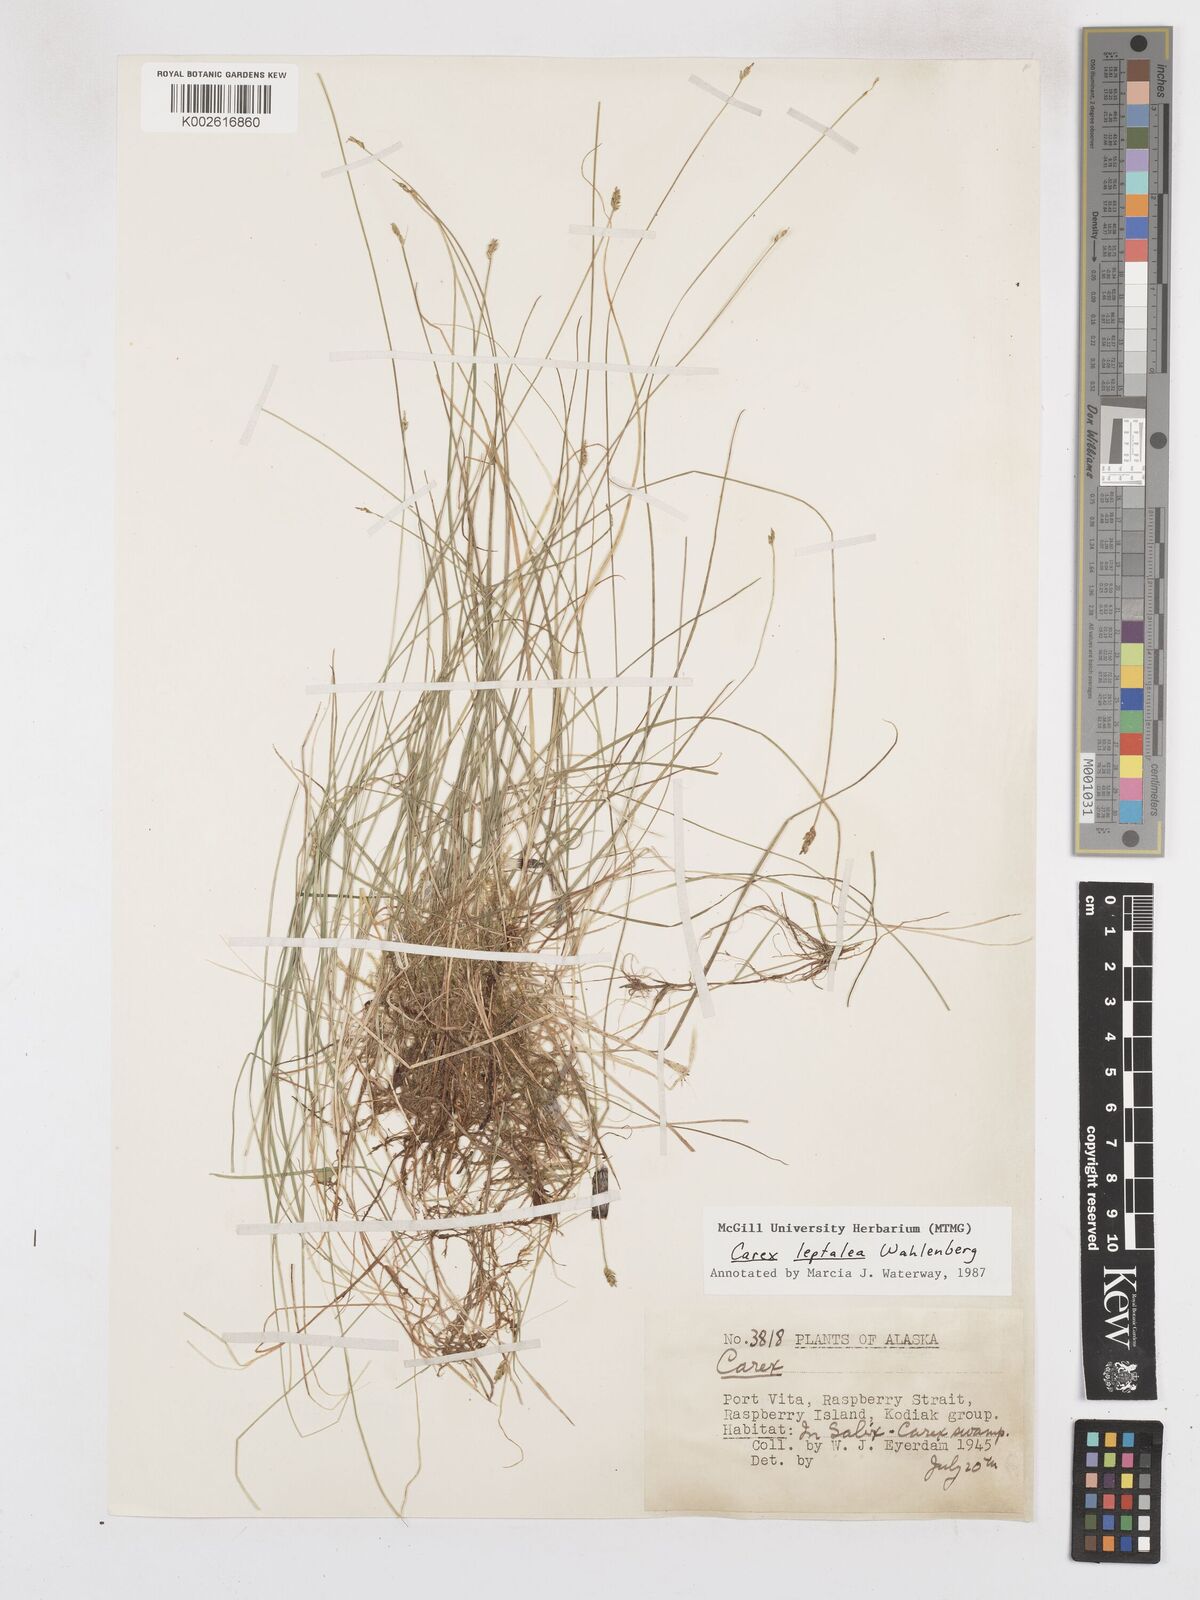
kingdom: Plantae
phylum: Tracheophyta
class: Liliopsida
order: Poales
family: Cyperaceae
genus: Carex
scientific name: Carex leptalea
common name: Bristly-stalked sedge
